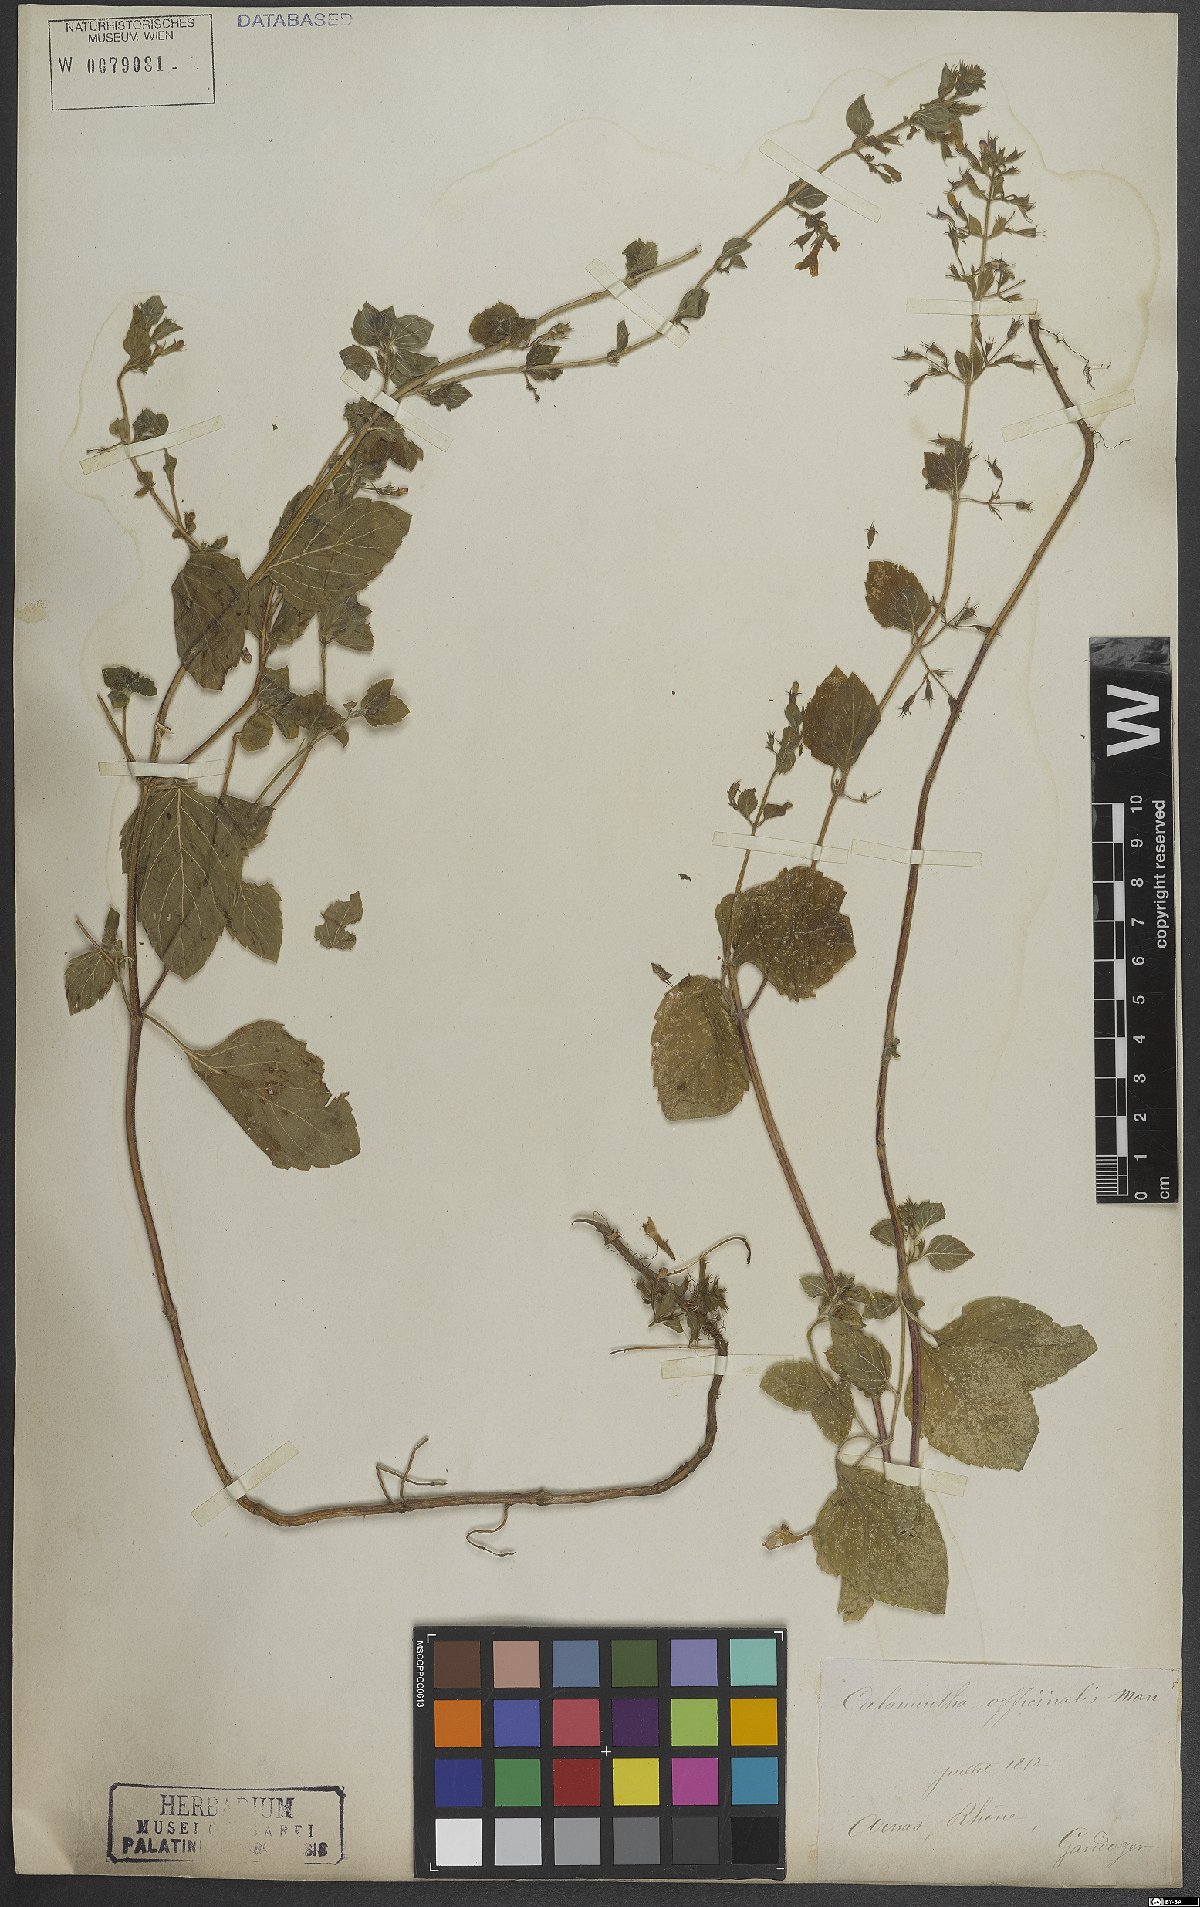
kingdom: Plantae
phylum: Tracheophyta
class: Magnoliopsida
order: Lamiales
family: Lamiaceae
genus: Clinopodium
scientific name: Clinopodium nepeta
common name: Lesser calamint
